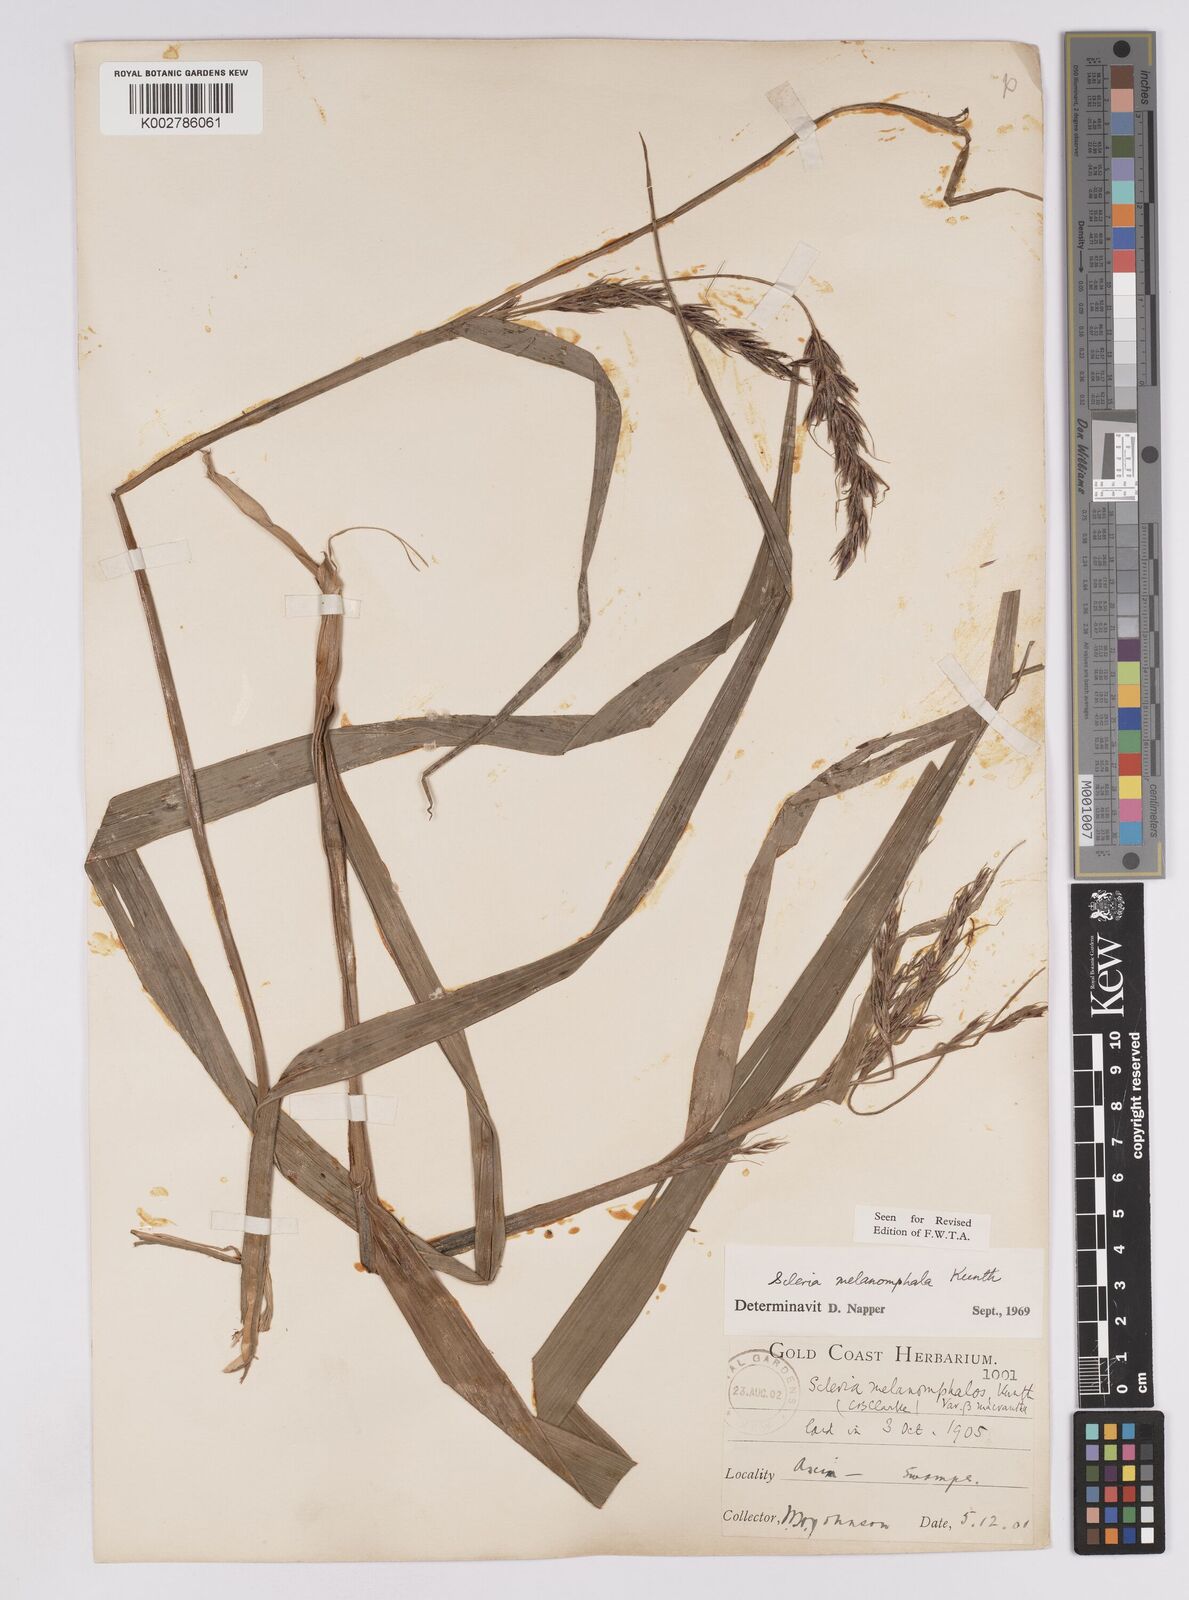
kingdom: Plantae
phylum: Tracheophyta
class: Liliopsida
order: Poales
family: Cyperaceae
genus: Scleria
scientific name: Scleria melanomphala
